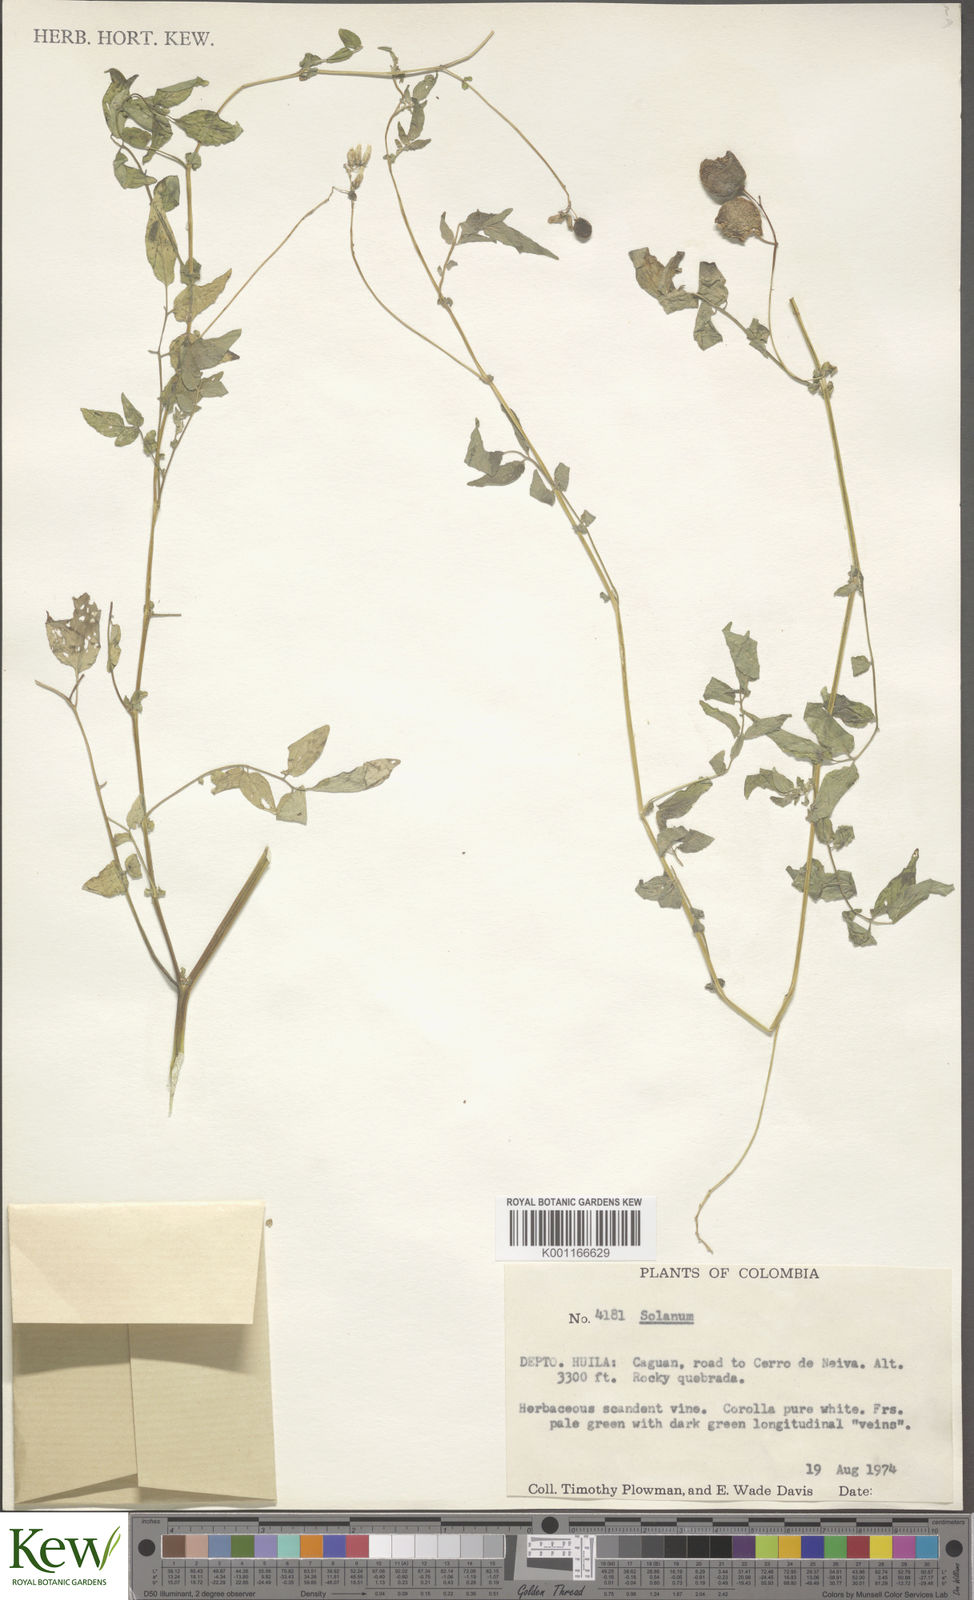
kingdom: Plantae
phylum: Tracheophyta
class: Magnoliopsida
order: Solanales
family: Solanaceae
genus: Solanum
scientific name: Solanum
